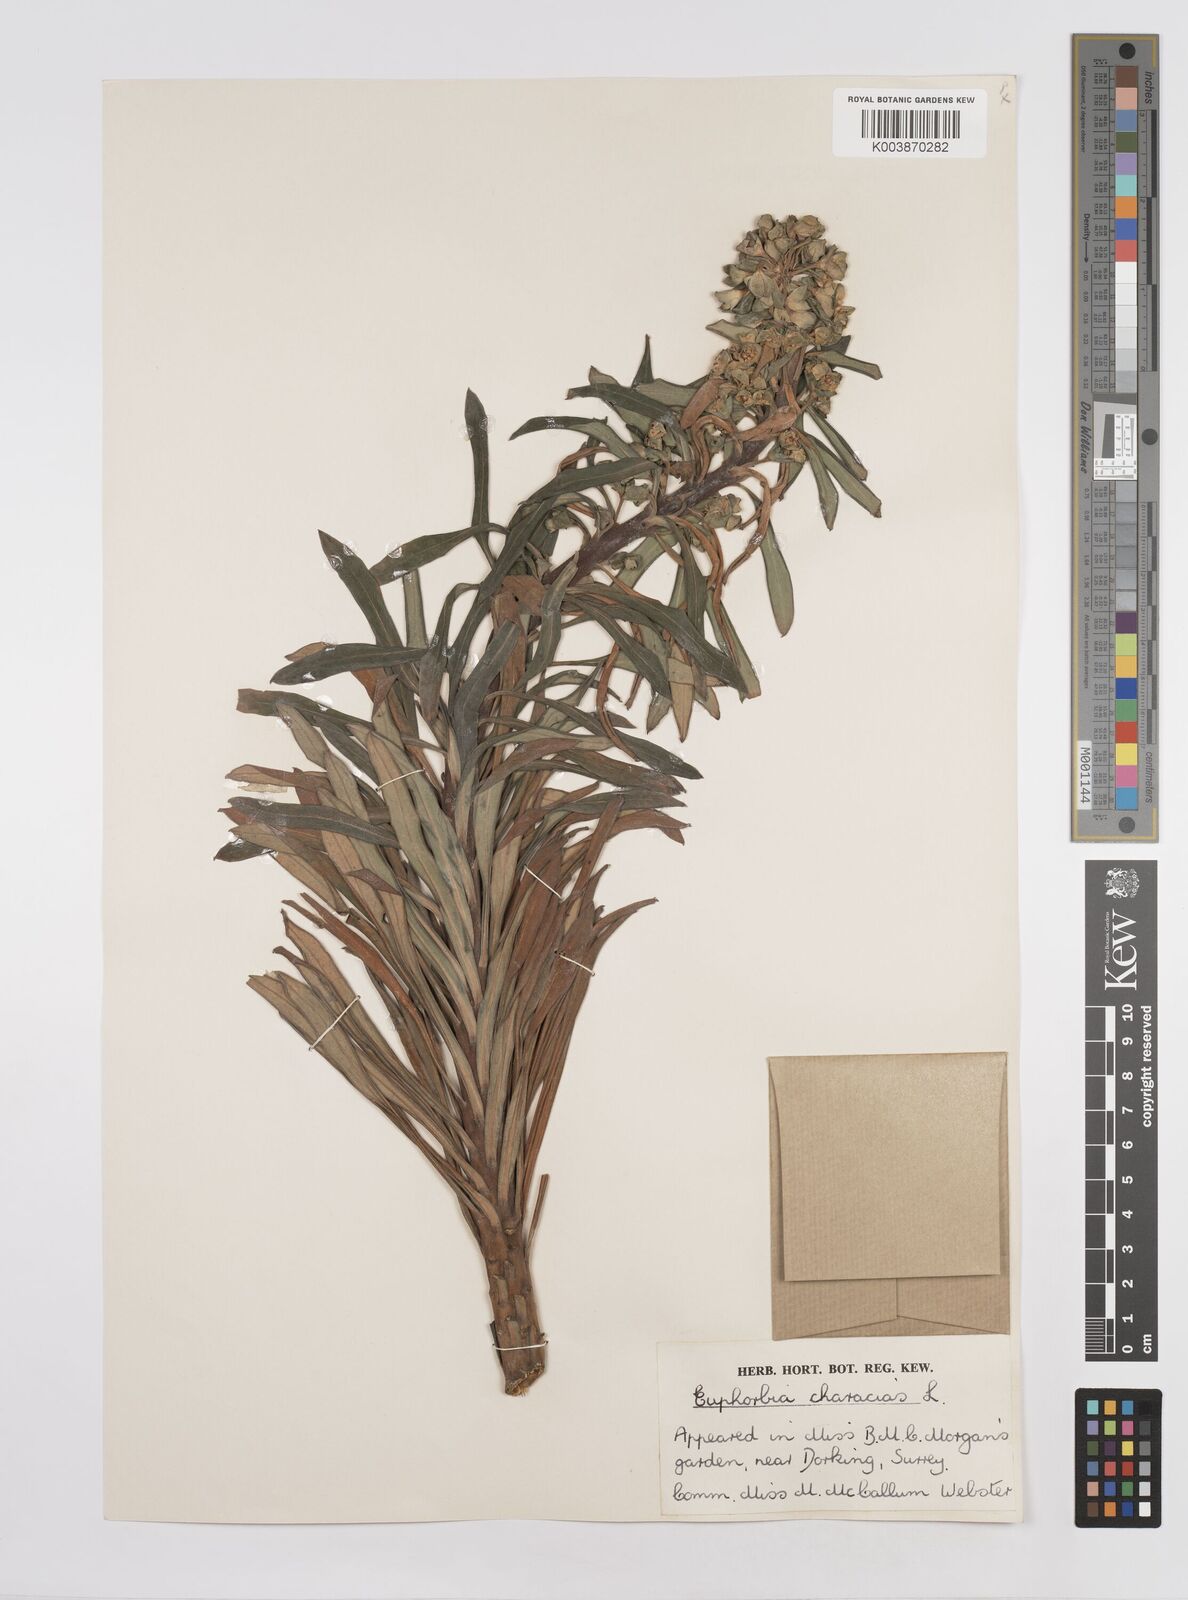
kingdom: Plantae
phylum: Tracheophyta
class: Magnoliopsida
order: Malpighiales
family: Euphorbiaceae
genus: Euphorbia
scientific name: Euphorbia characias
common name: Mediterranean spurge
